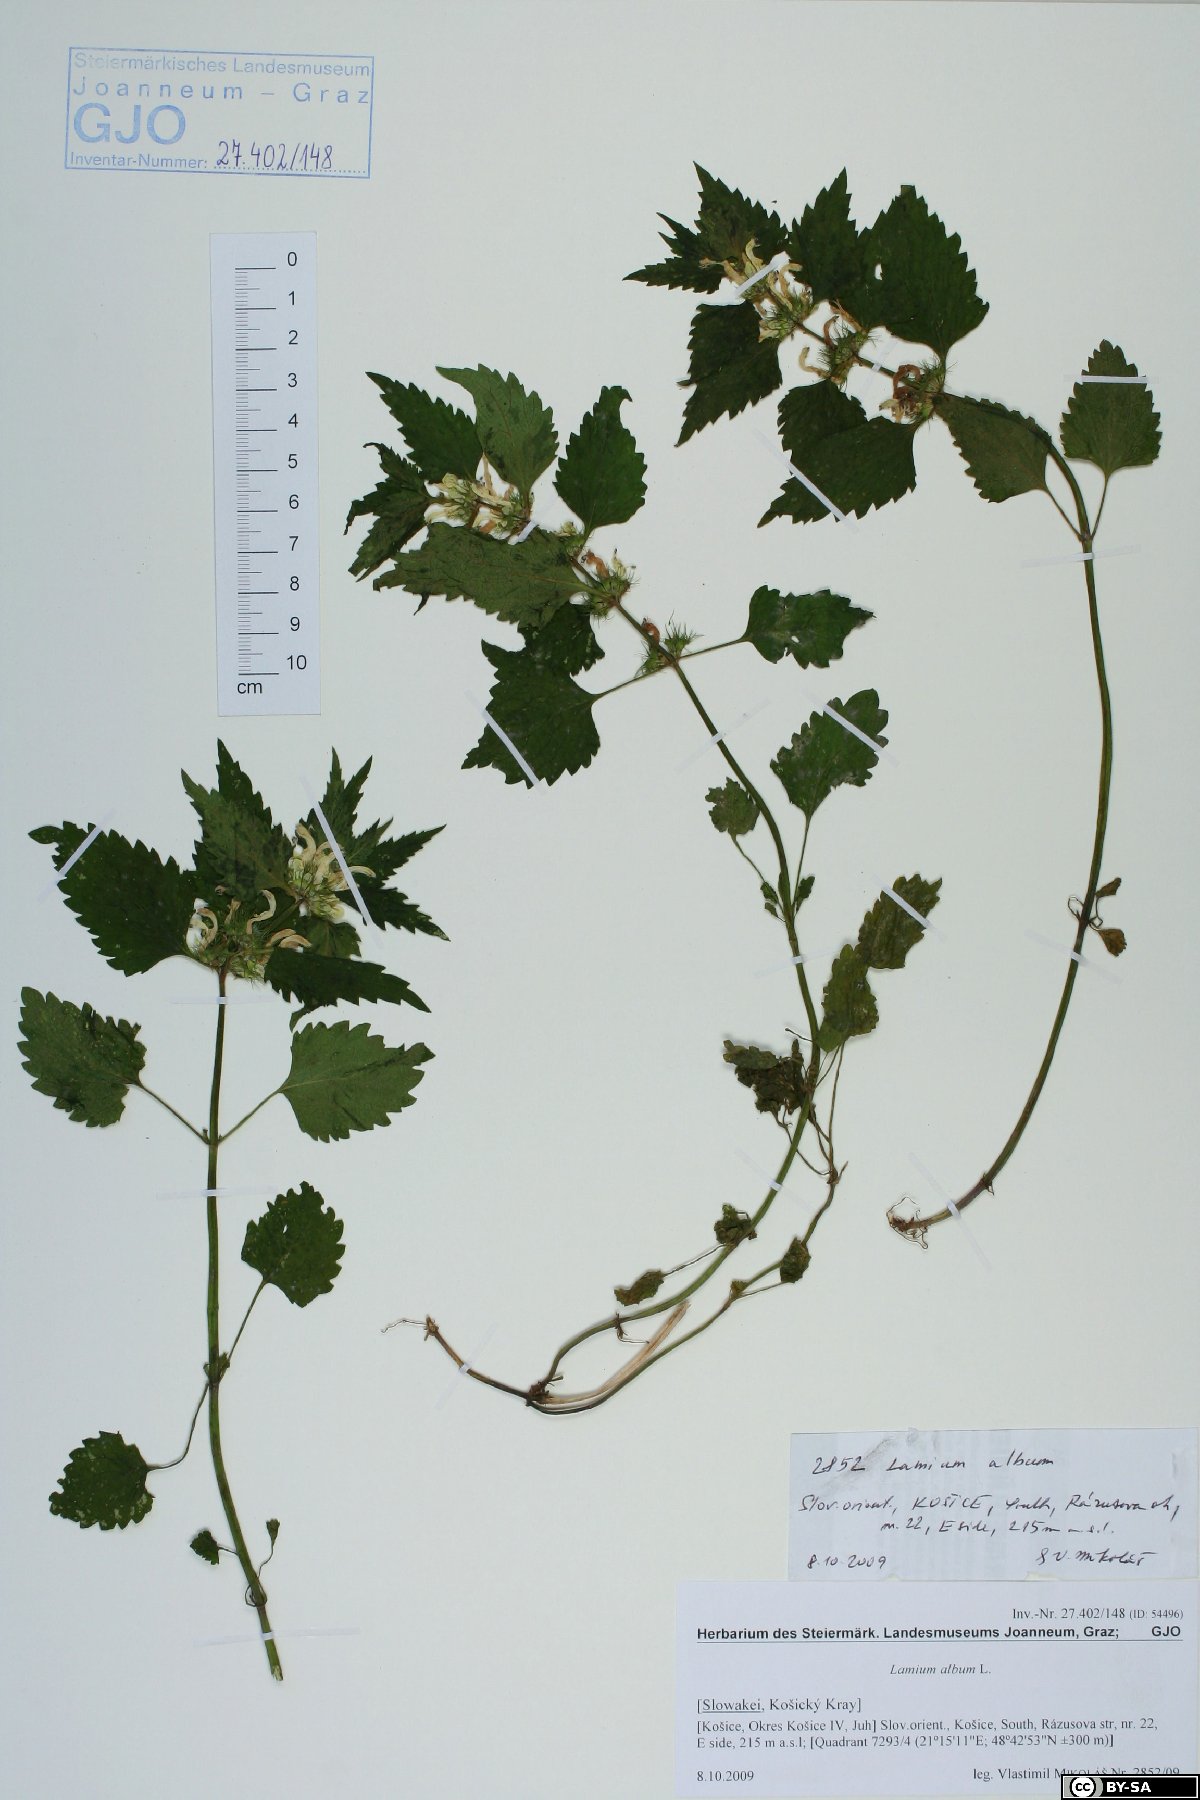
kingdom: Plantae
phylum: Tracheophyta
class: Magnoliopsida
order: Lamiales
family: Lamiaceae
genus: Lamium
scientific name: Lamium album
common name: White dead-nettle
